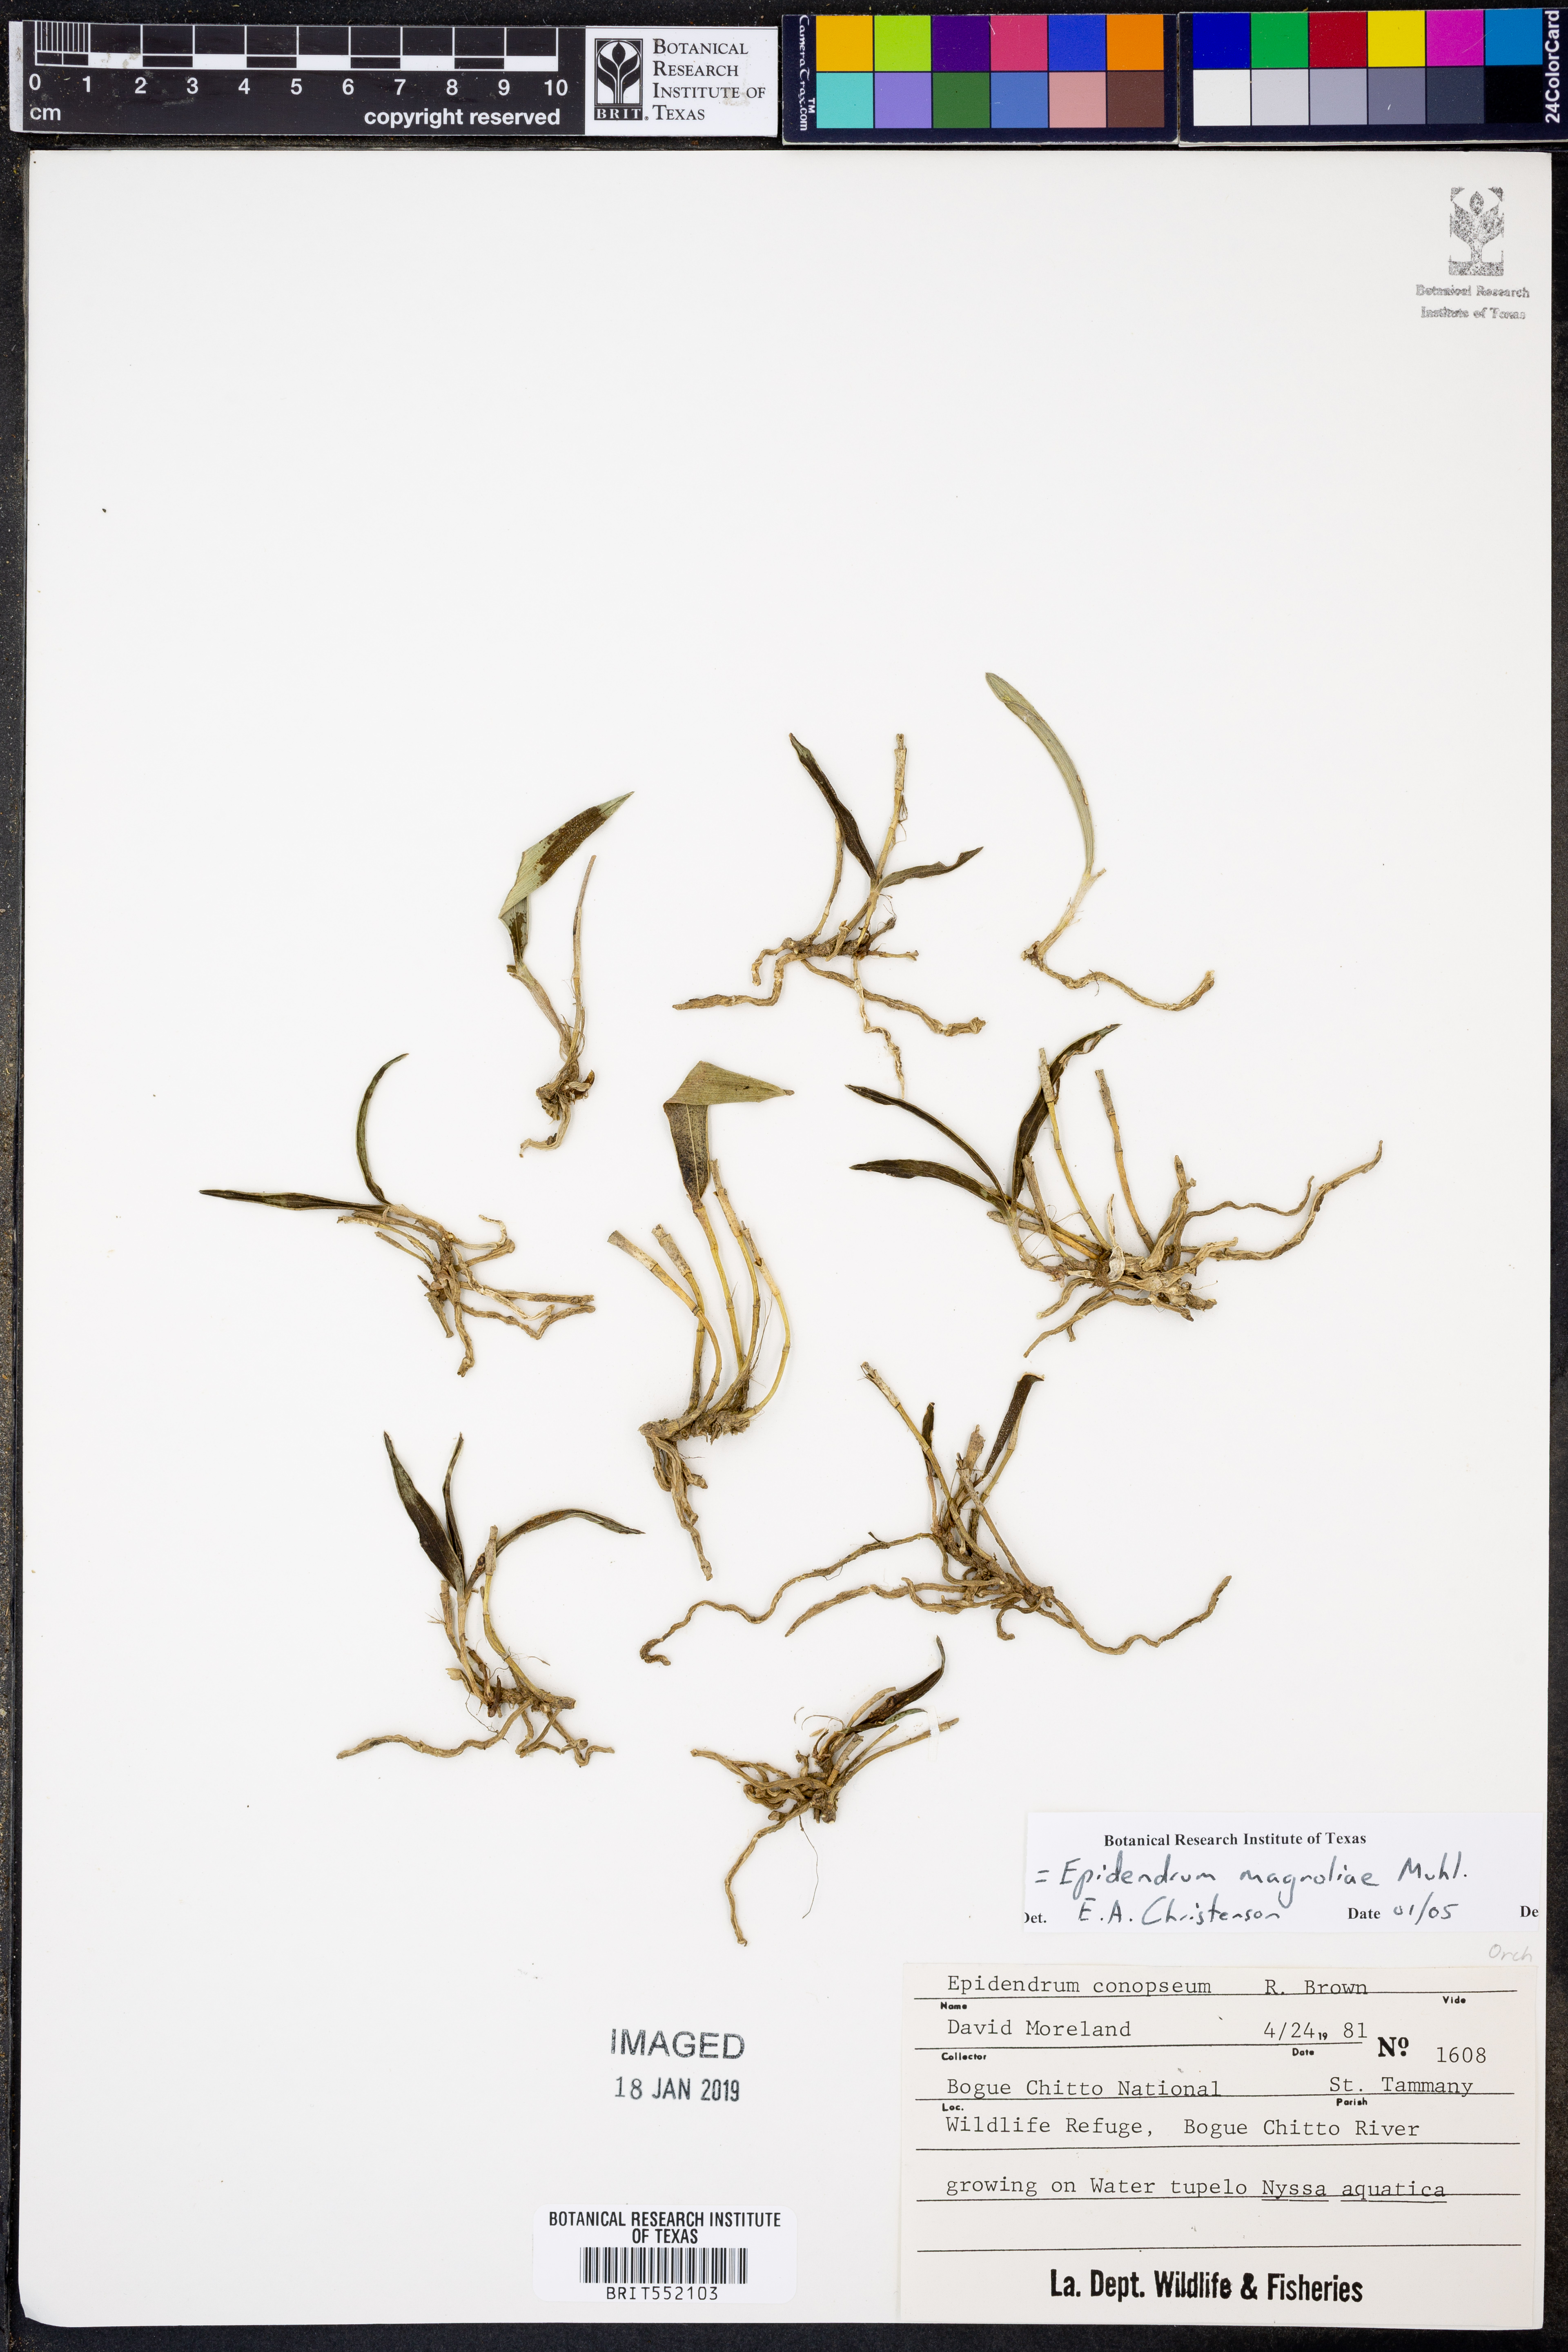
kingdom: Plantae
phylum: Tracheophyta
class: Liliopsida
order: Asparagales
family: Orchidaceae
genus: Epidendrum
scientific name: Epidendrum magnoliae
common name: Green fly orchid
